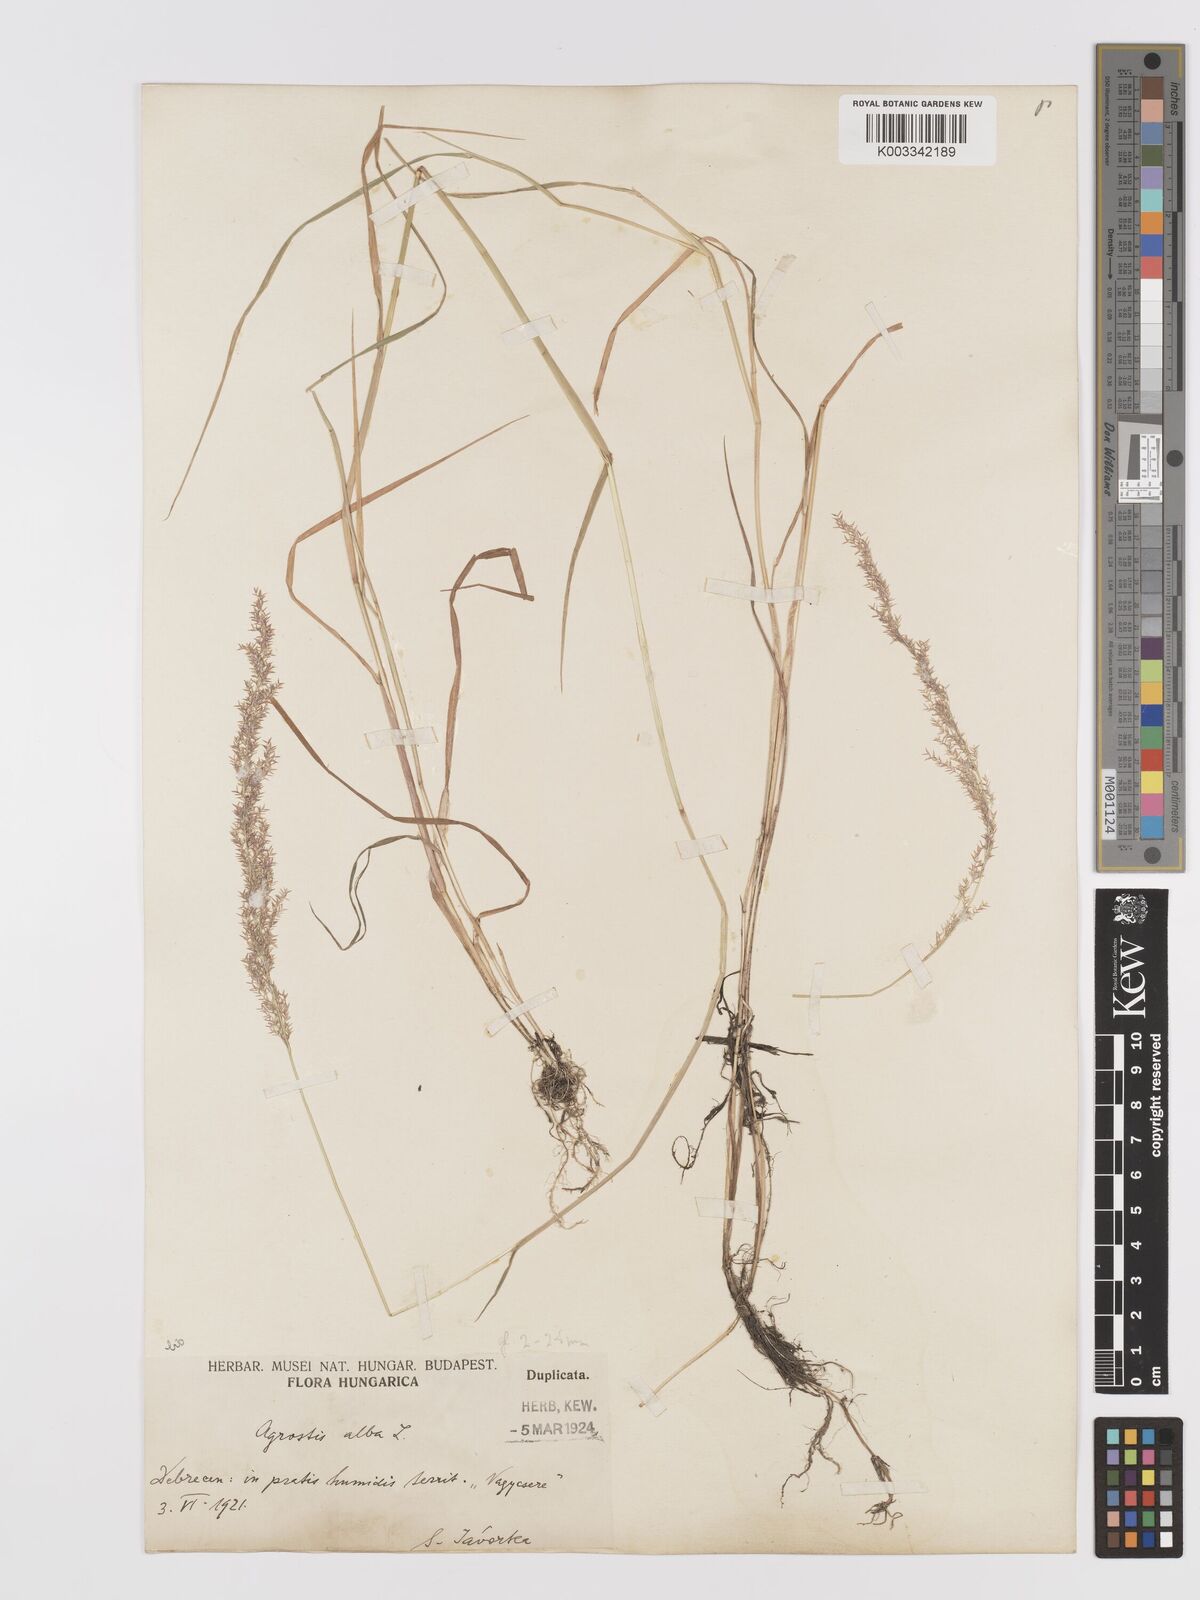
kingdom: Plantae
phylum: Tracheophyta
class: Liliopsida
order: Poales
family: Poaceae
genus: Agrostis
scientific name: Agrostis stolonifera
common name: Creeping bentgrass
